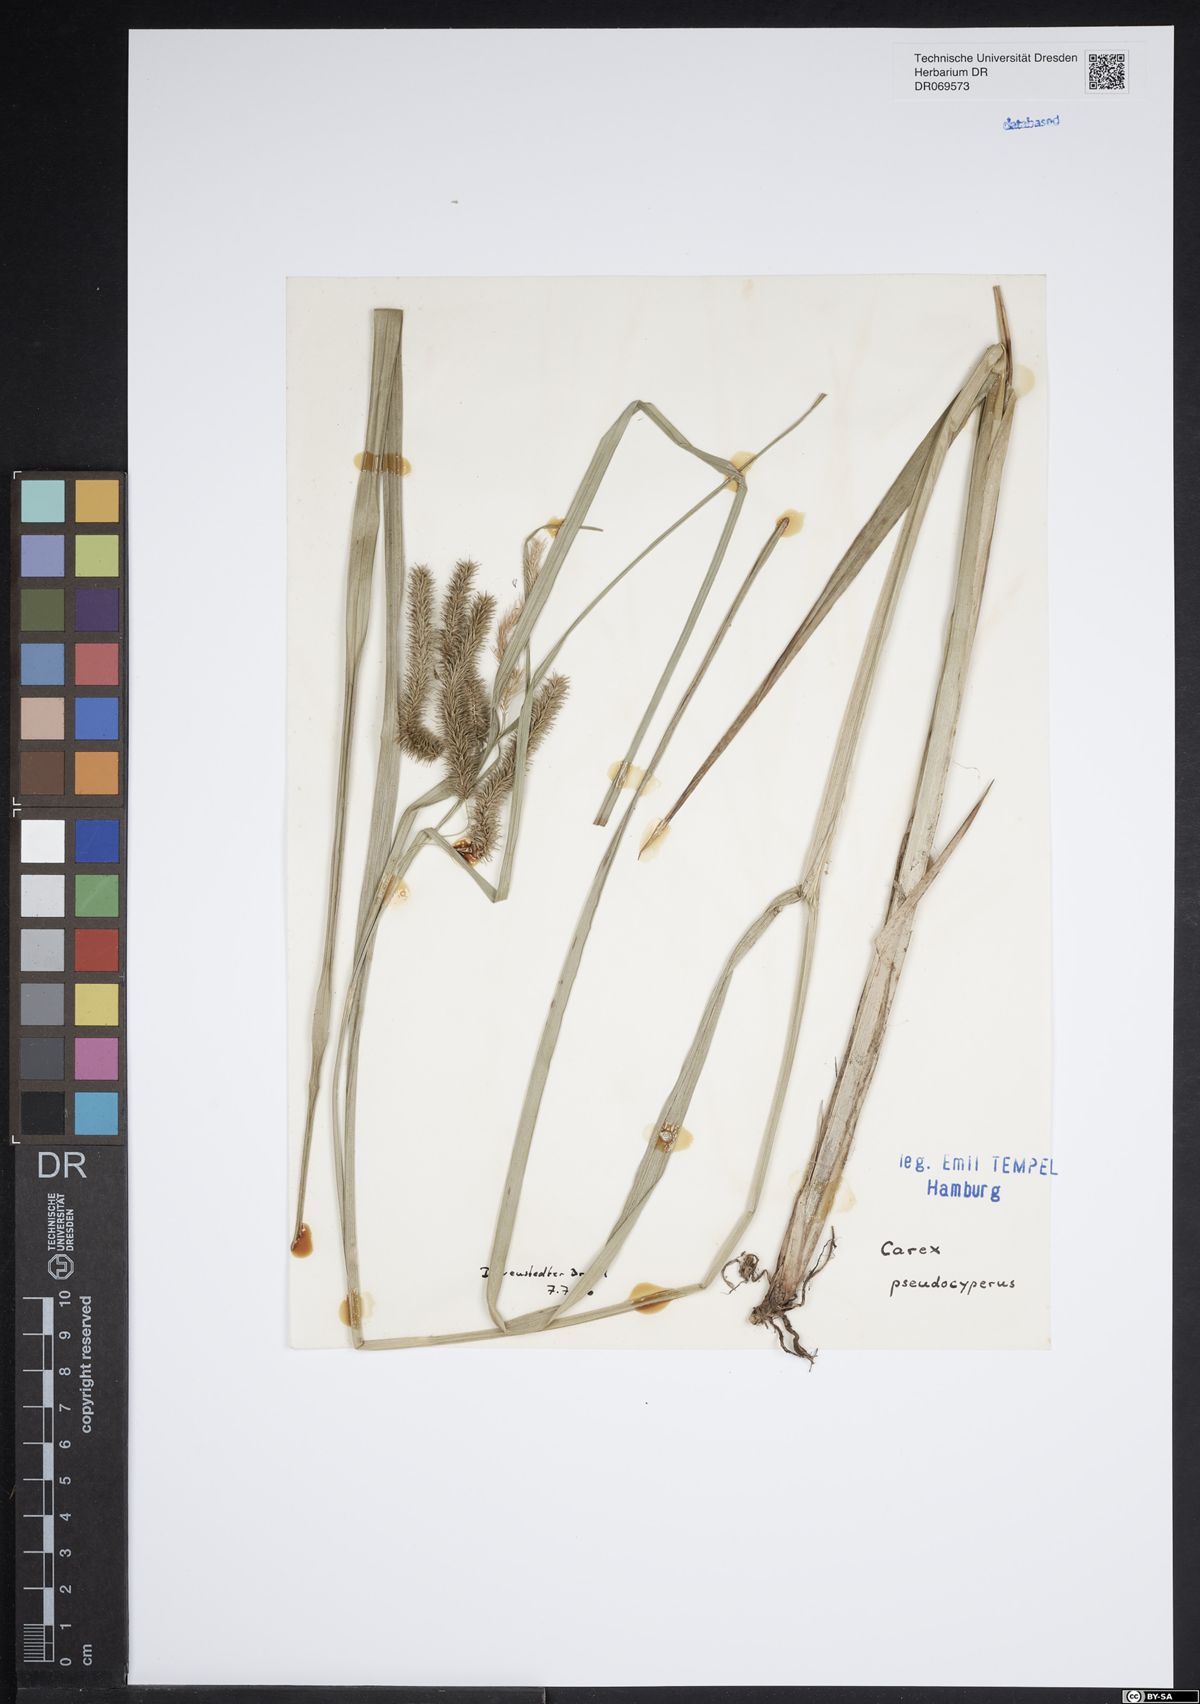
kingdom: Plantae
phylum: Tracheophyta
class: Liliopsida
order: Poales
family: Cyperaceae
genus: Carex
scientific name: Carex pseudocyperus
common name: Cyperus sedge
